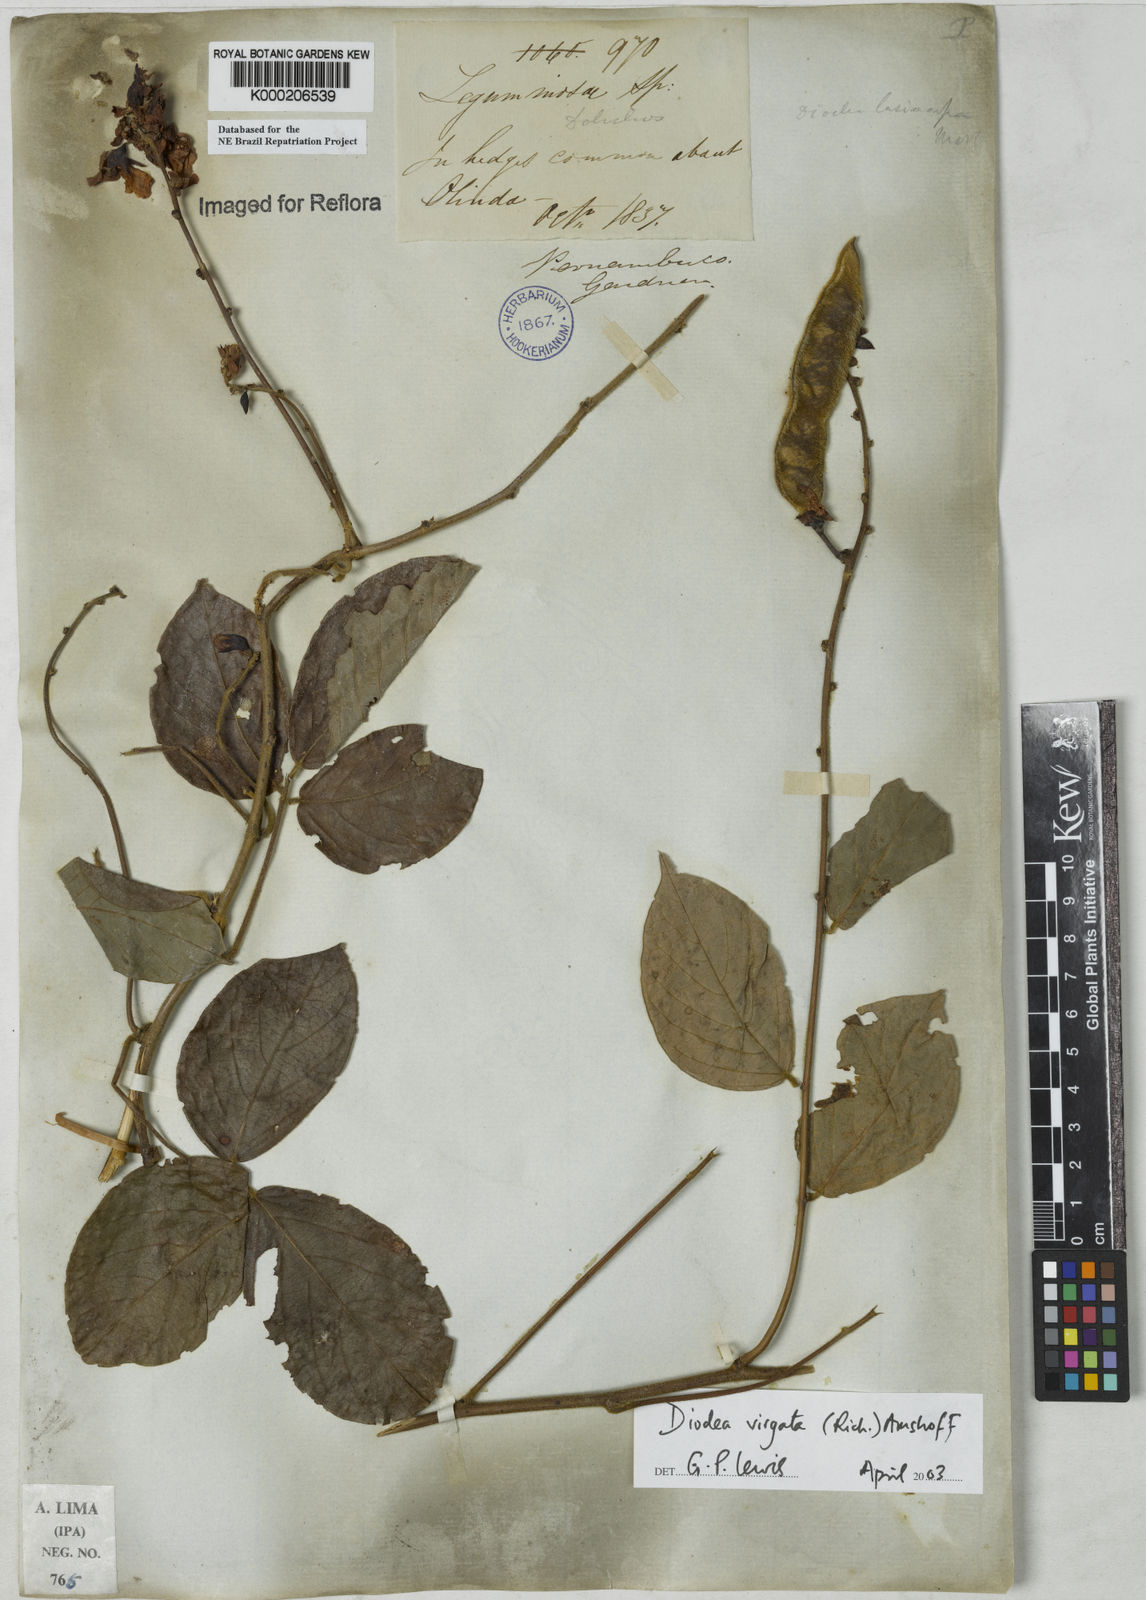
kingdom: Plantae
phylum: Tracheophyta
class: Magnoliopsida
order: Fabales
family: Fabaceae
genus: Dioclea
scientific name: Dioclea virgata
